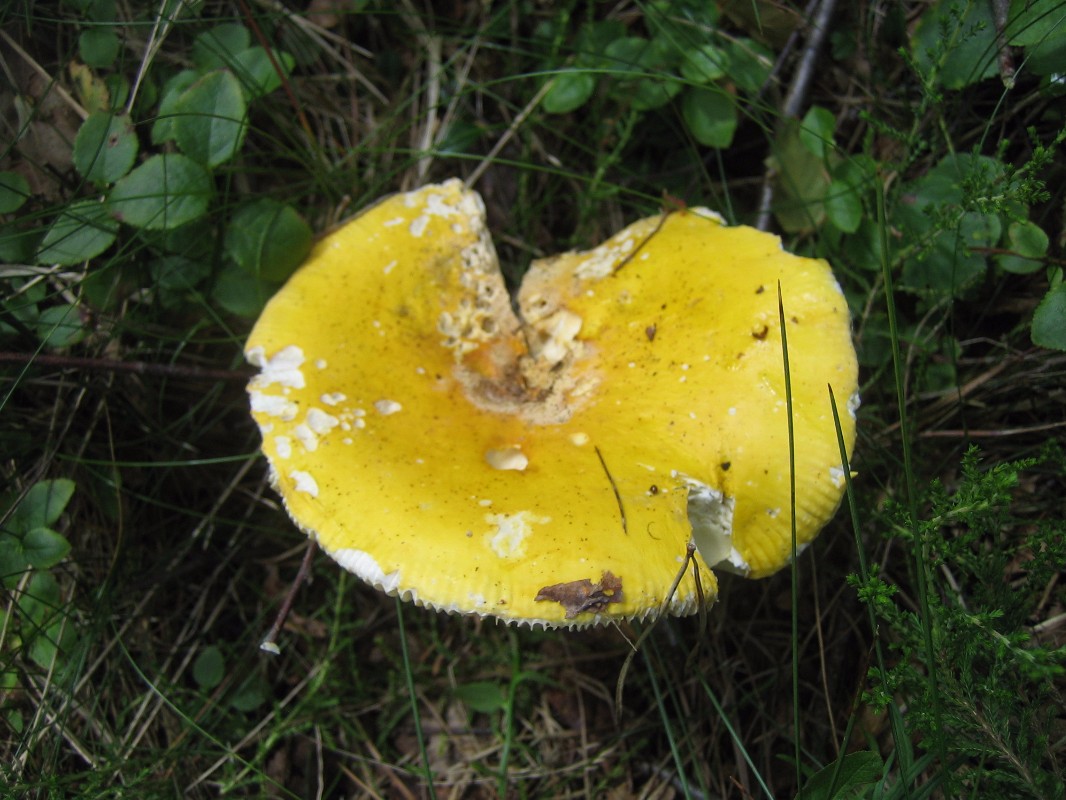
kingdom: Fungi
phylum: Basidiomycota
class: Agaricomycetes
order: Russulales
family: Russulaceae
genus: Russula
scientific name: Russula claroflava
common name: birke-skørhat
